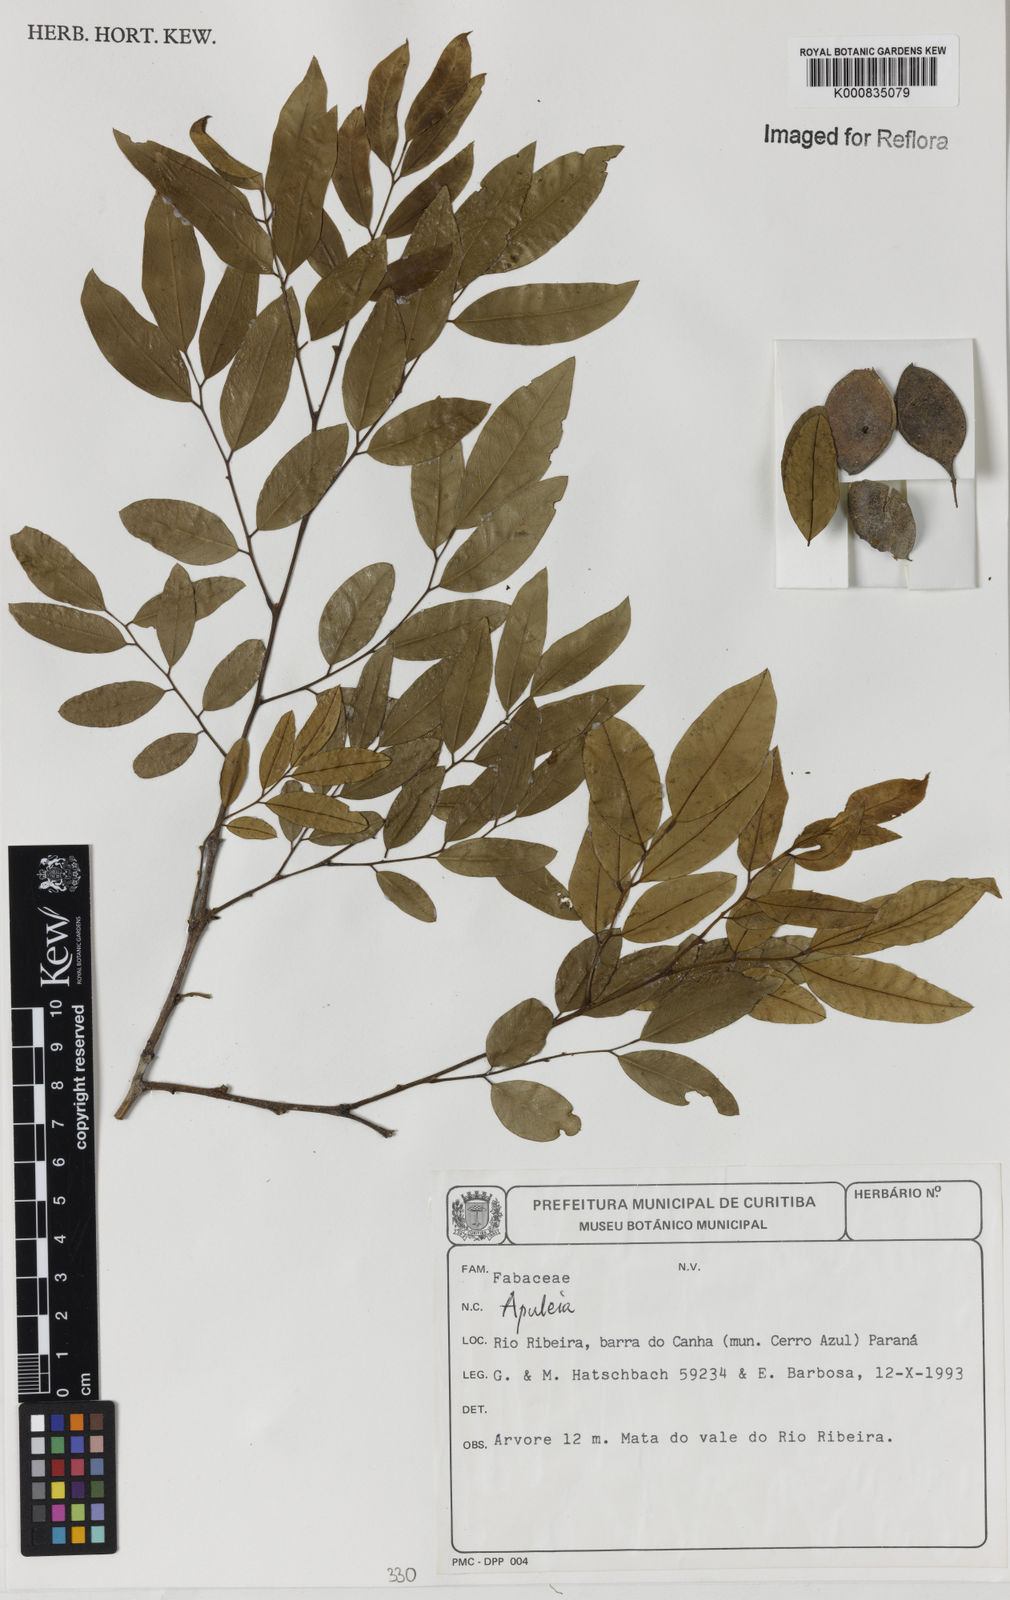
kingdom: Plantae
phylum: Tracheophyta
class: Magnoliopsida
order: Asterales
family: Asteraceae
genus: Berkheya
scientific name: Berkheya
